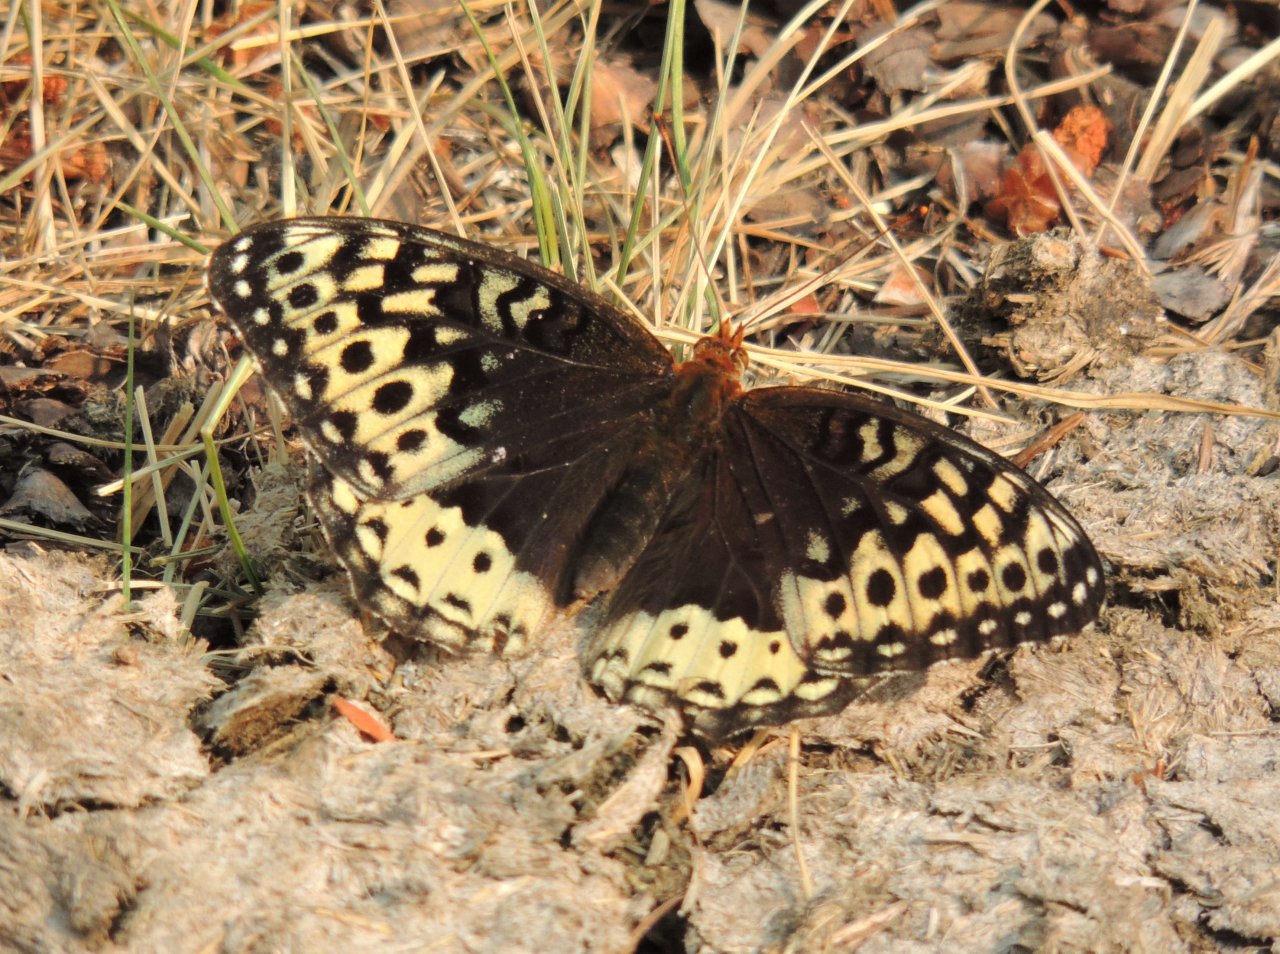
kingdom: Animalia
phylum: Arthropoda
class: Insecta
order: Lepidoptera
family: Nymphalidae
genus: Speyeria
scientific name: Speyeria cybele
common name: Great Spangled Fritillary
